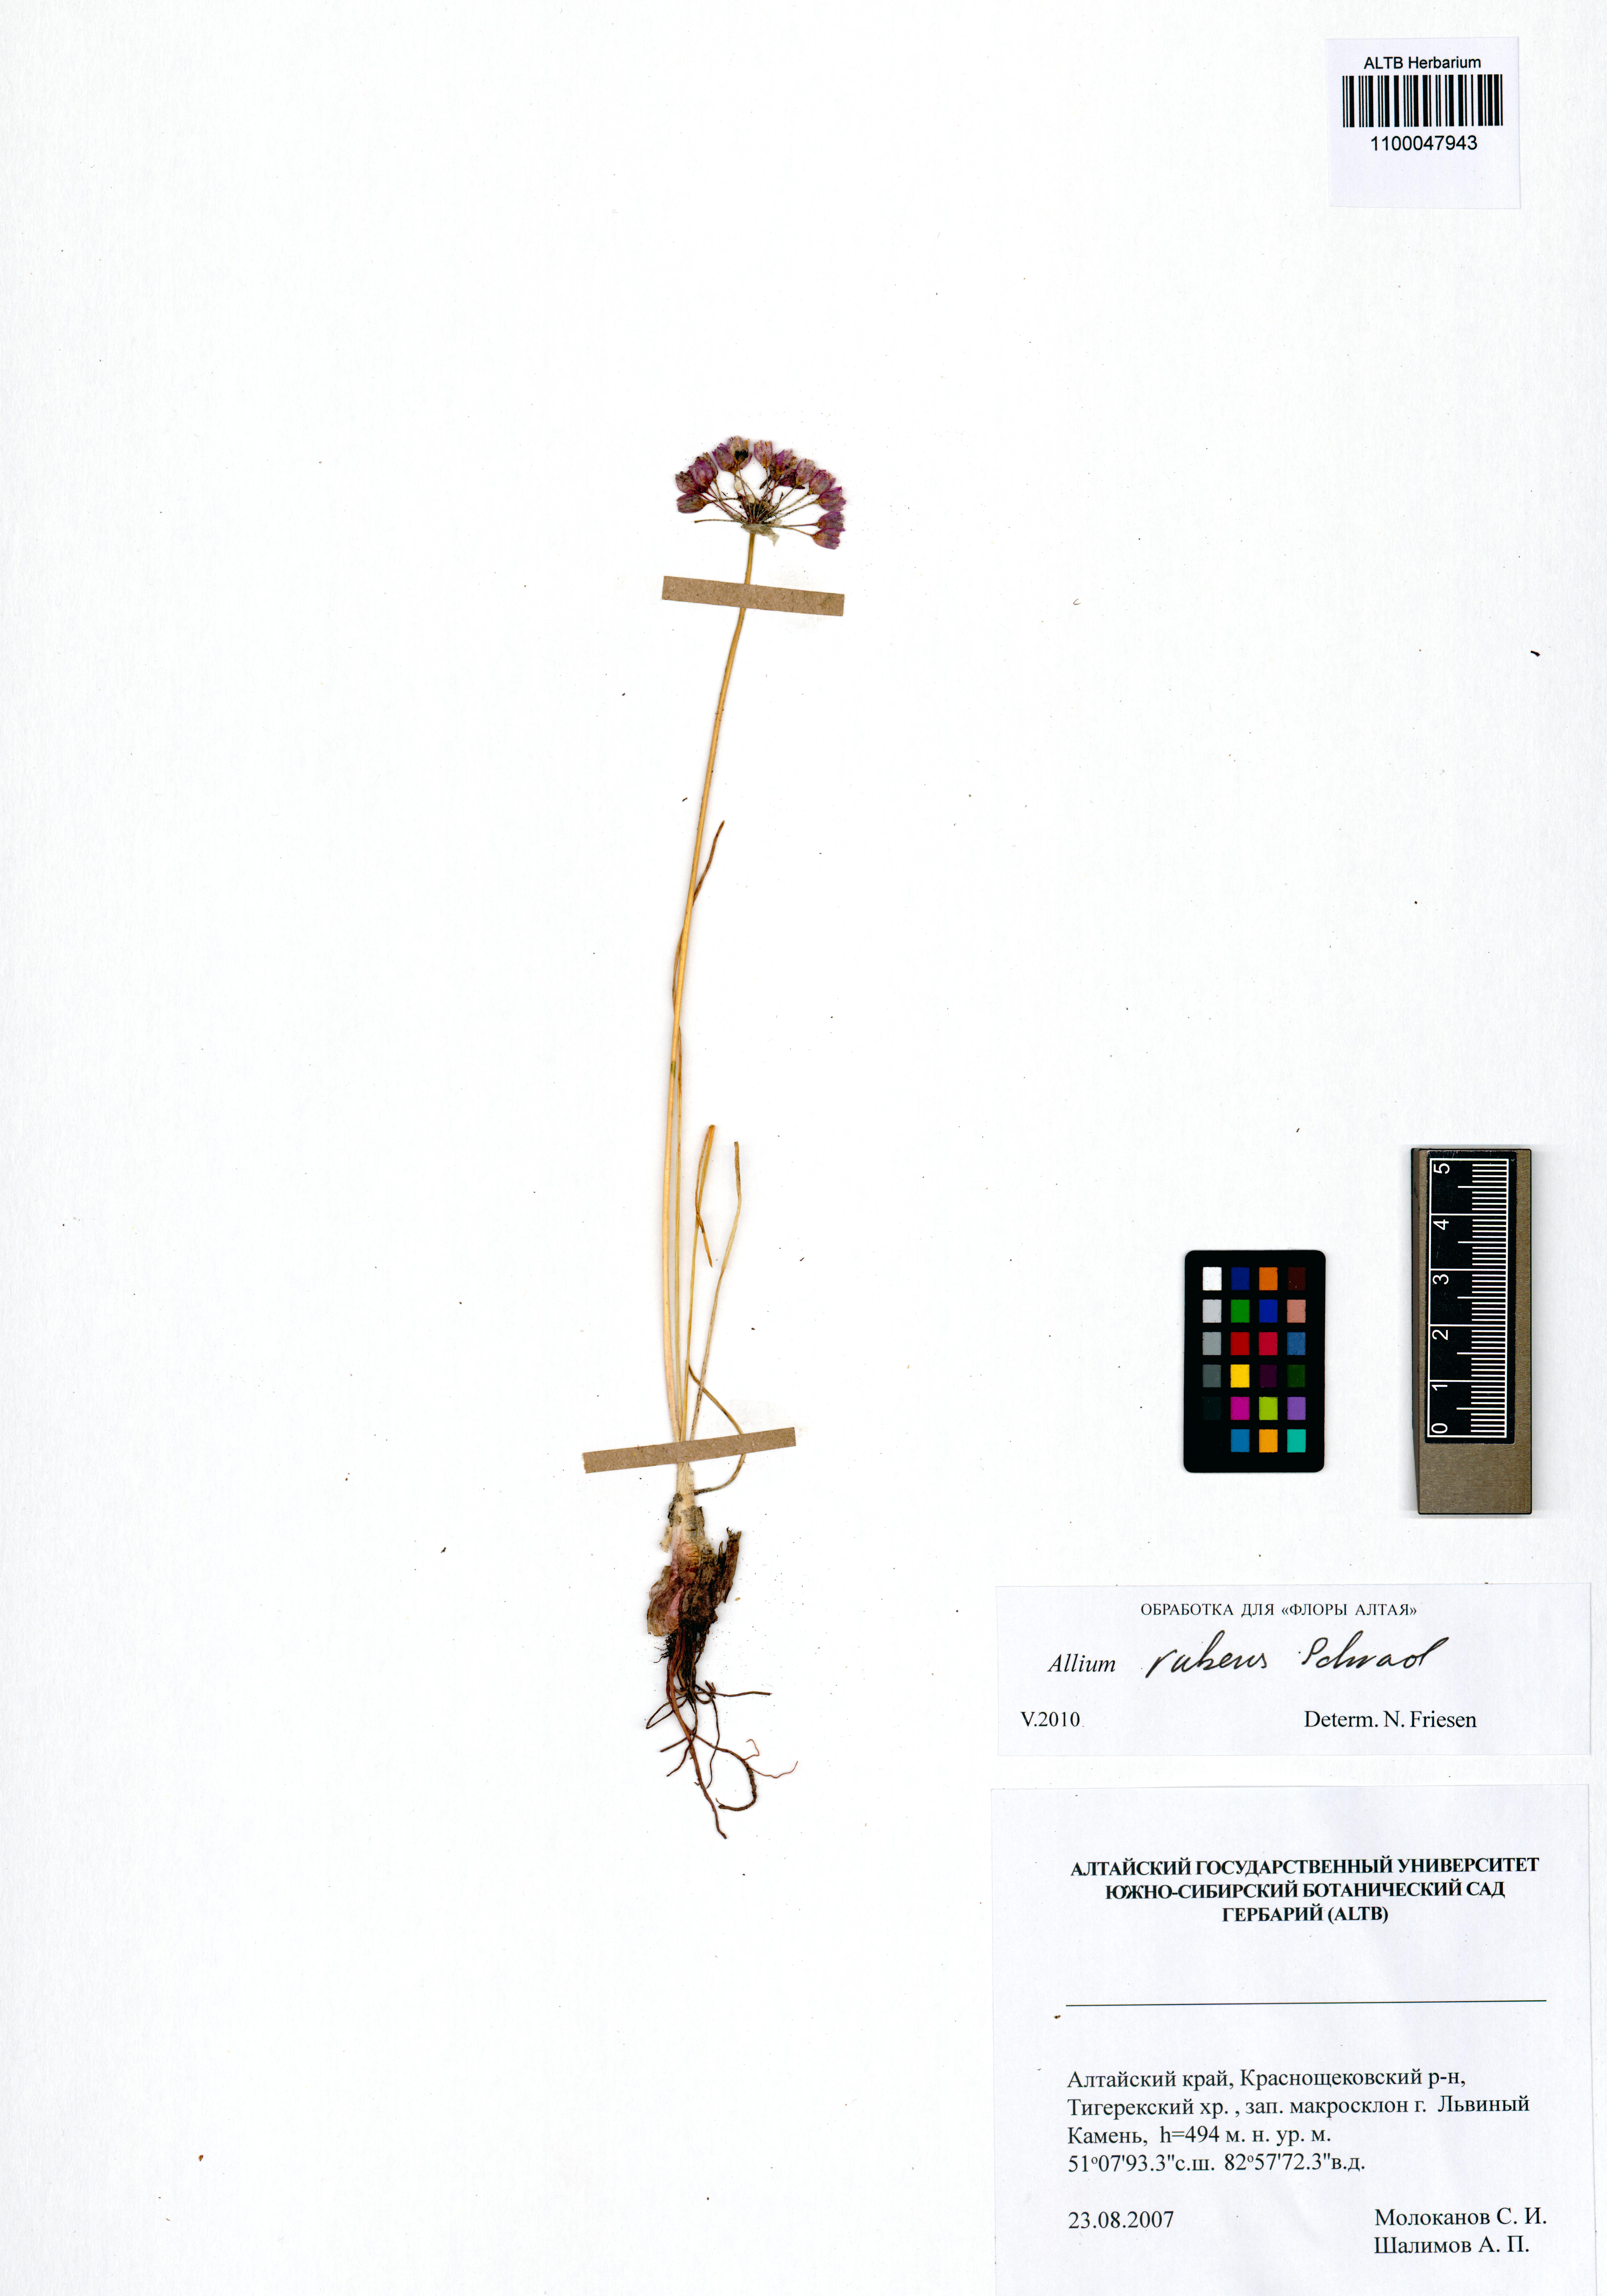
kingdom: Plantae
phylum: Tracheophyta
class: Liliopsida
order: Asparagales
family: Amaryllidaceae
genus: Allium
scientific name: Allium rubens
